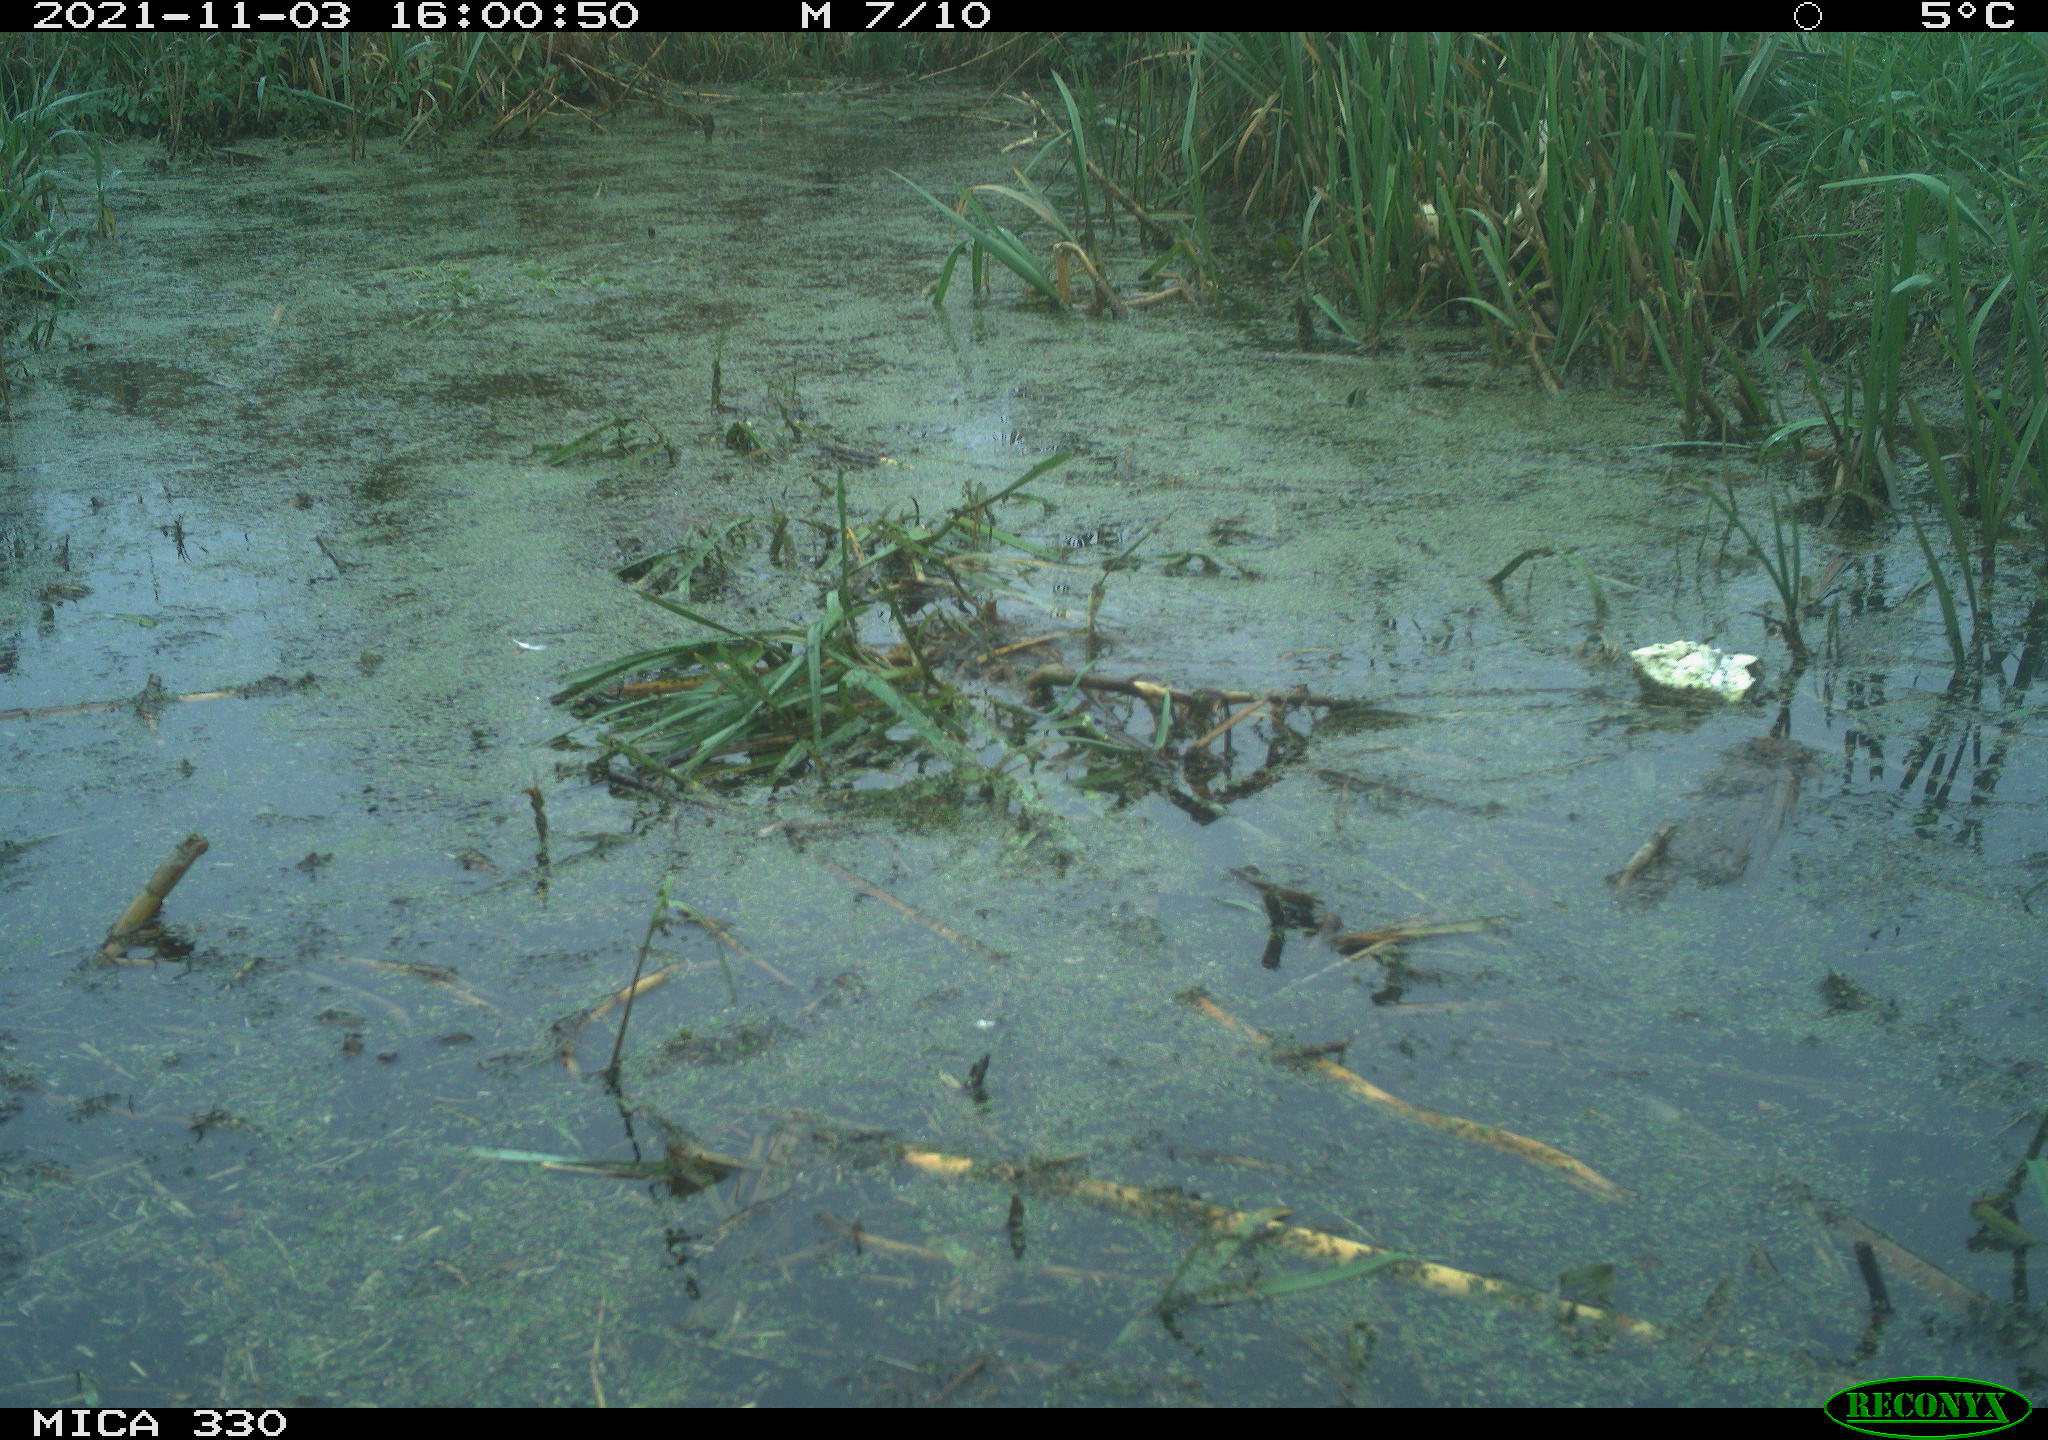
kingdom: Animalia
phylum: Chordata
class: Aves
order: Gruiformes
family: Rallidae
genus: Gallinula
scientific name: Gallinula chloropus
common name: Common moorhen
